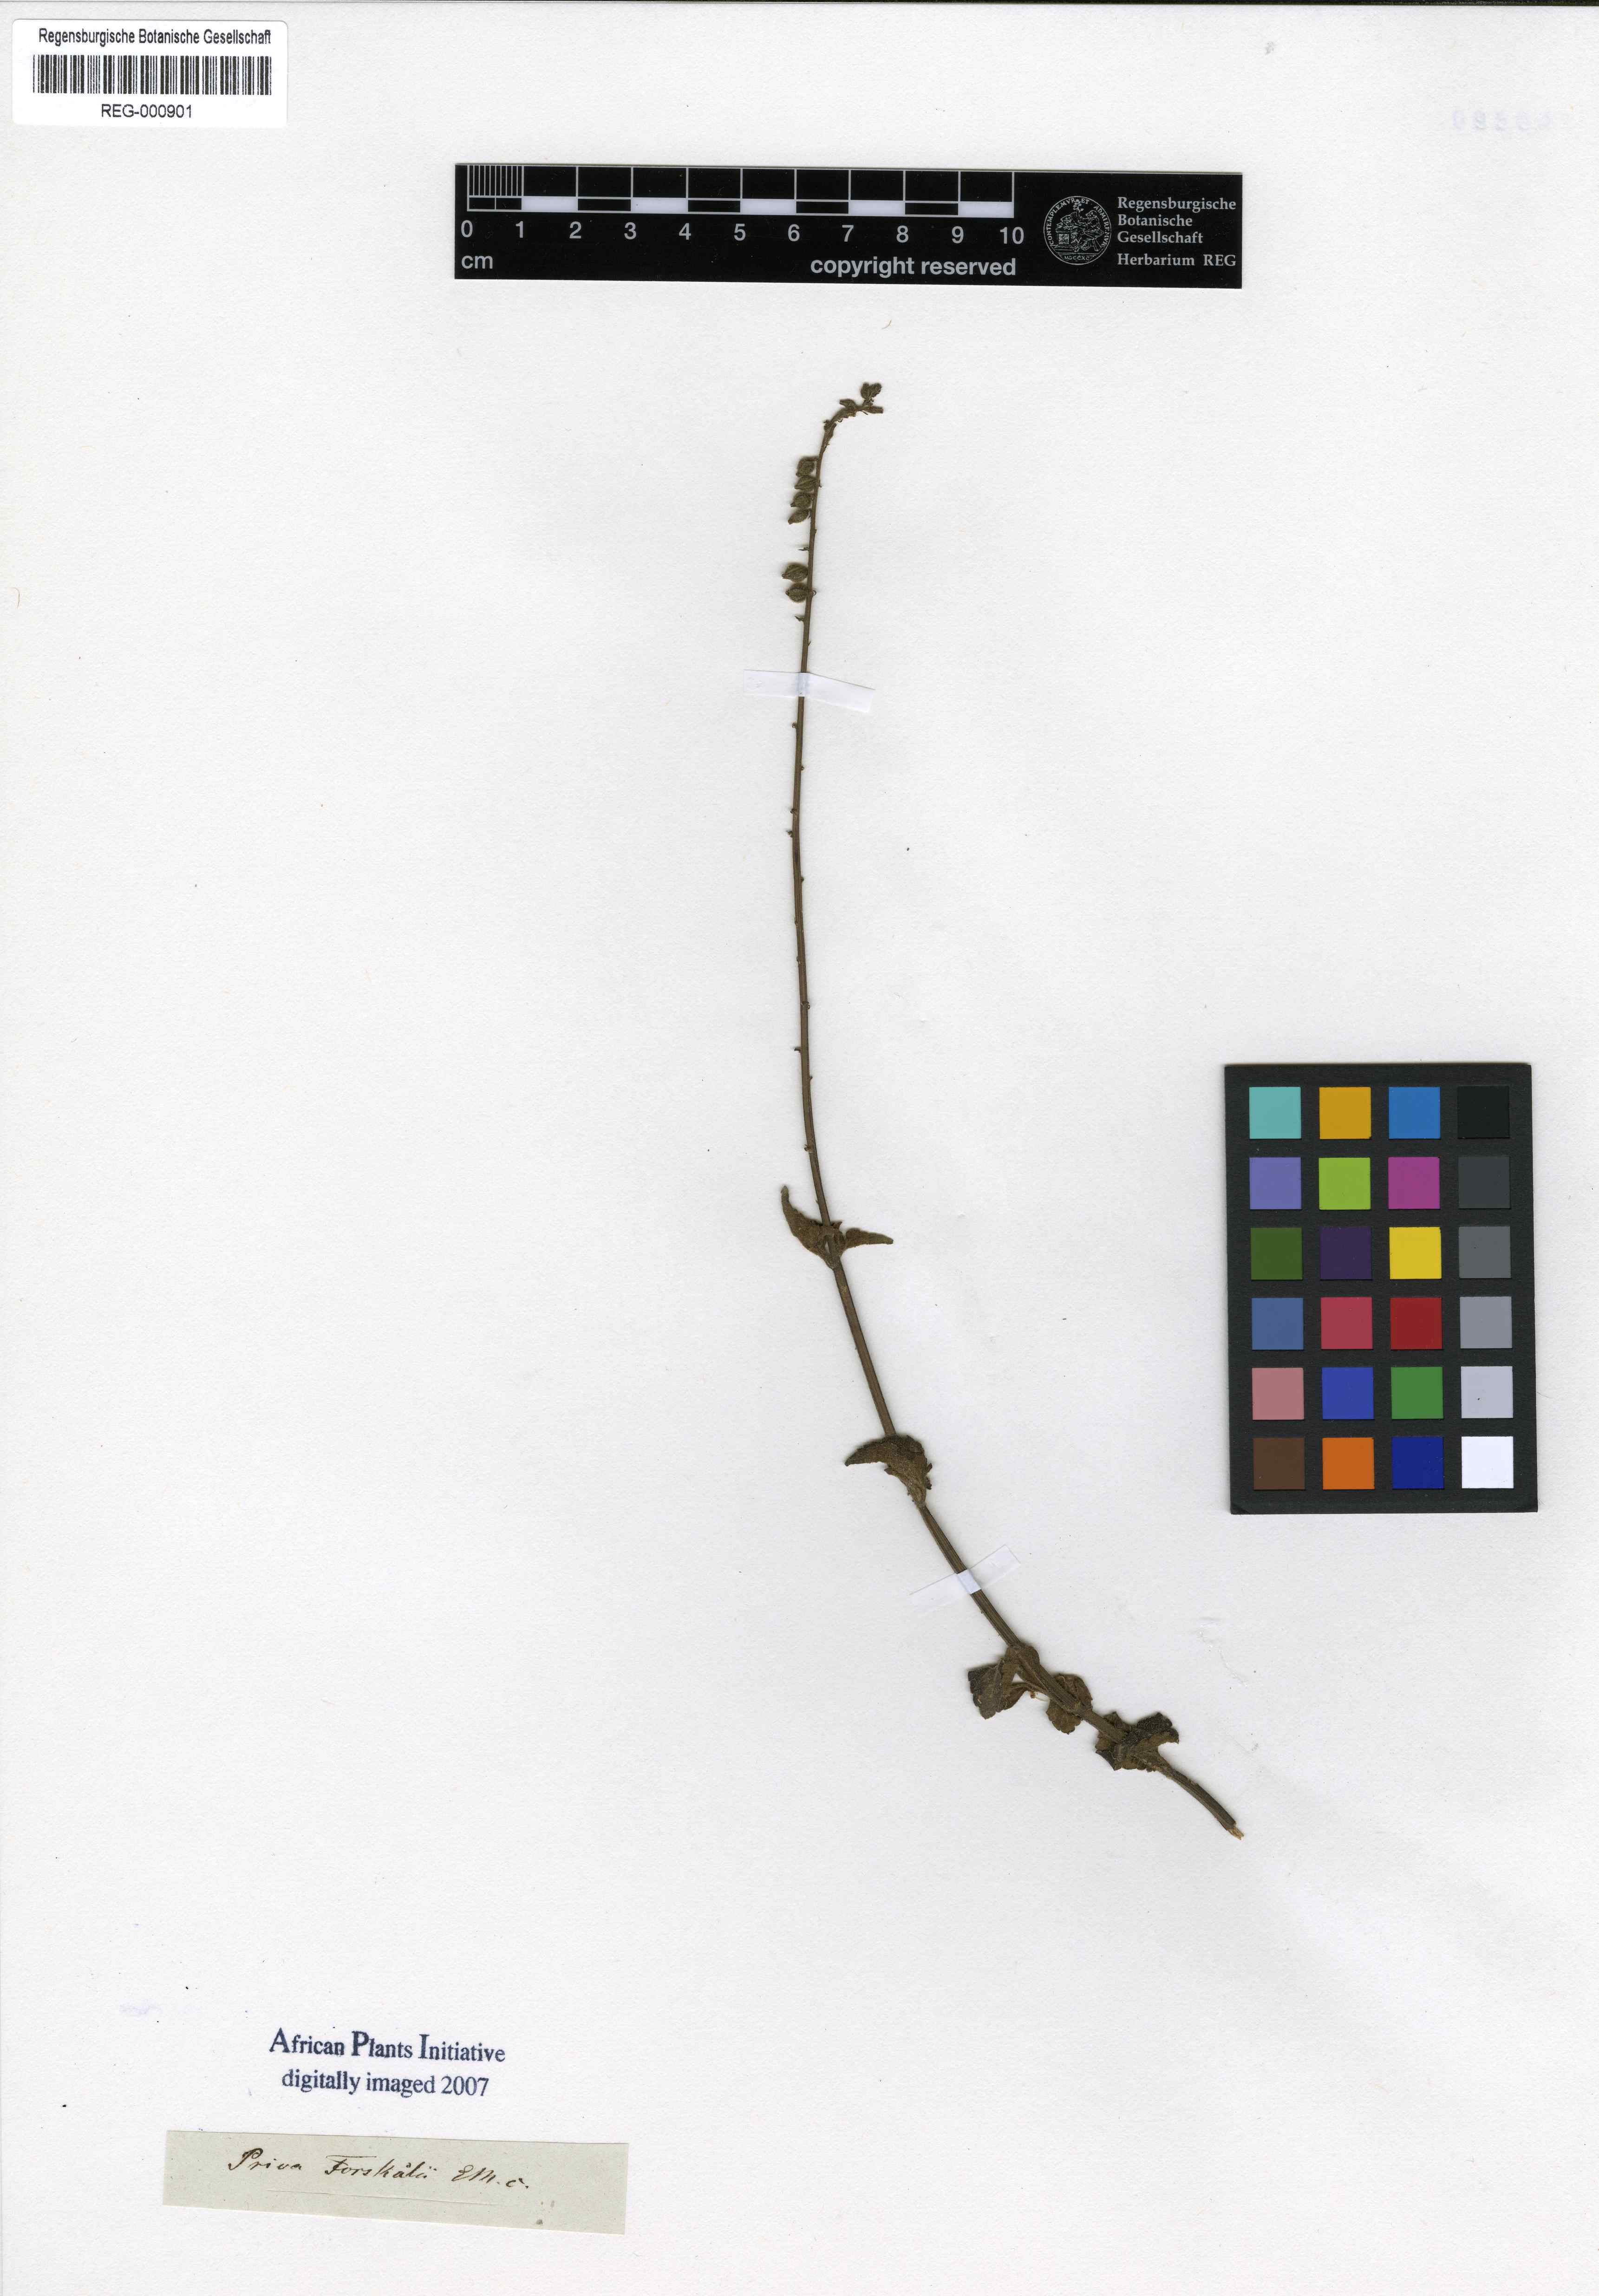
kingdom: Plantae
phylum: Tracheophyta
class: Magnoliopsida
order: Lamiales
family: Verbenaceae
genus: Priva
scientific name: Priva forskaolii
